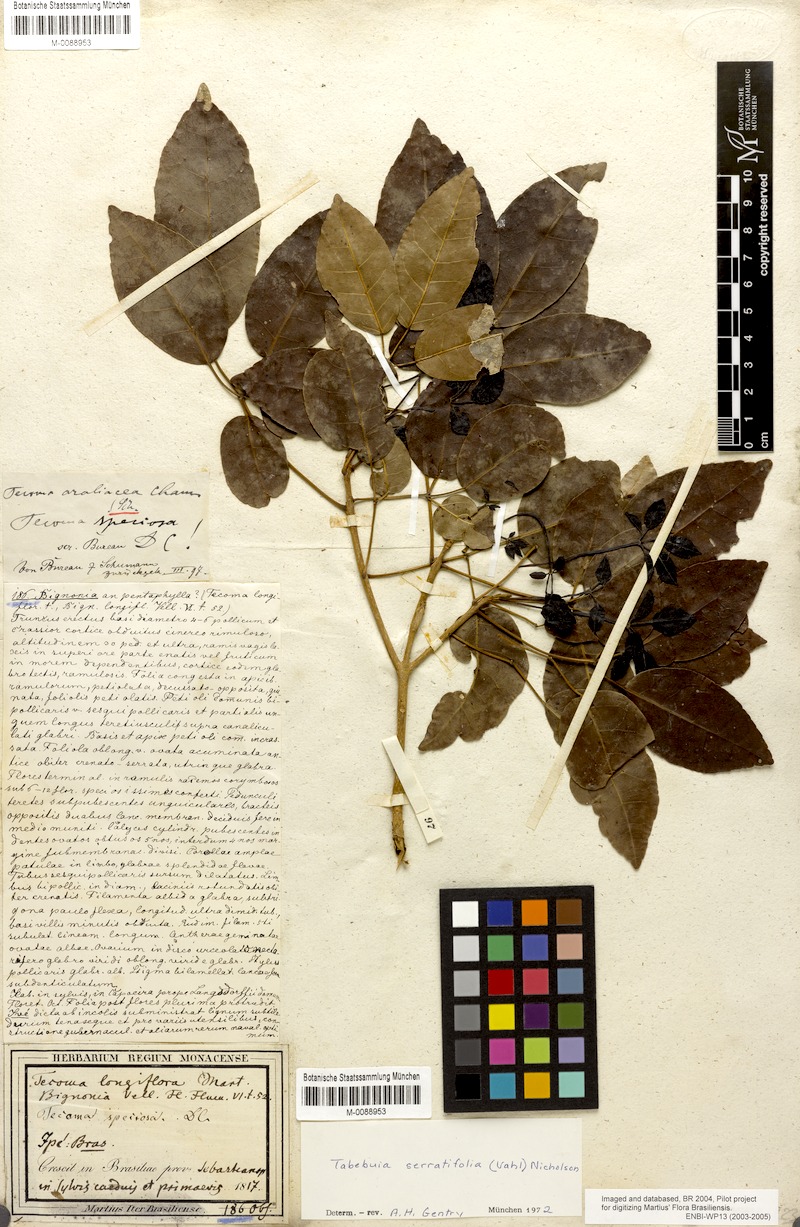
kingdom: Plantae
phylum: Tracheophyta
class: Magnoliopsida
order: Lamiales
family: Bignoniaceae
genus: Handroanthus
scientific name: Handroanthus serratifolius
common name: Yellow ipe
